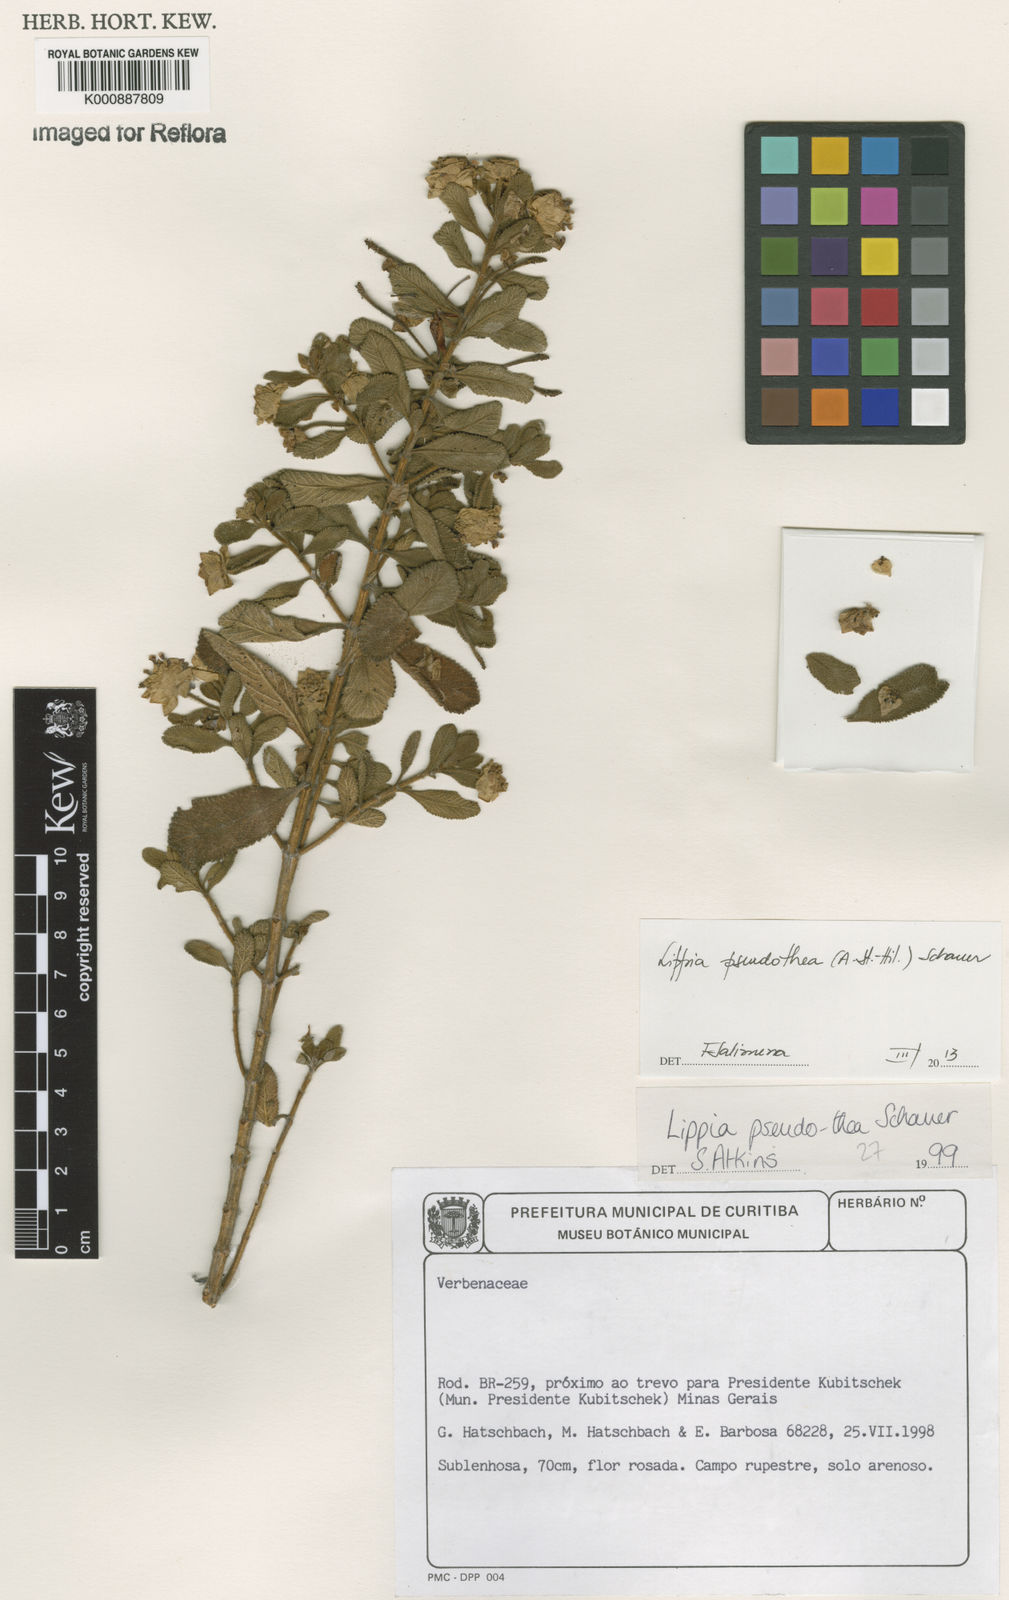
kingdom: Plantae
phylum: Tracheophyta
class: Magnoliopsida
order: Lamiales
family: Verbenaceae
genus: Lippia
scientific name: Lippia
